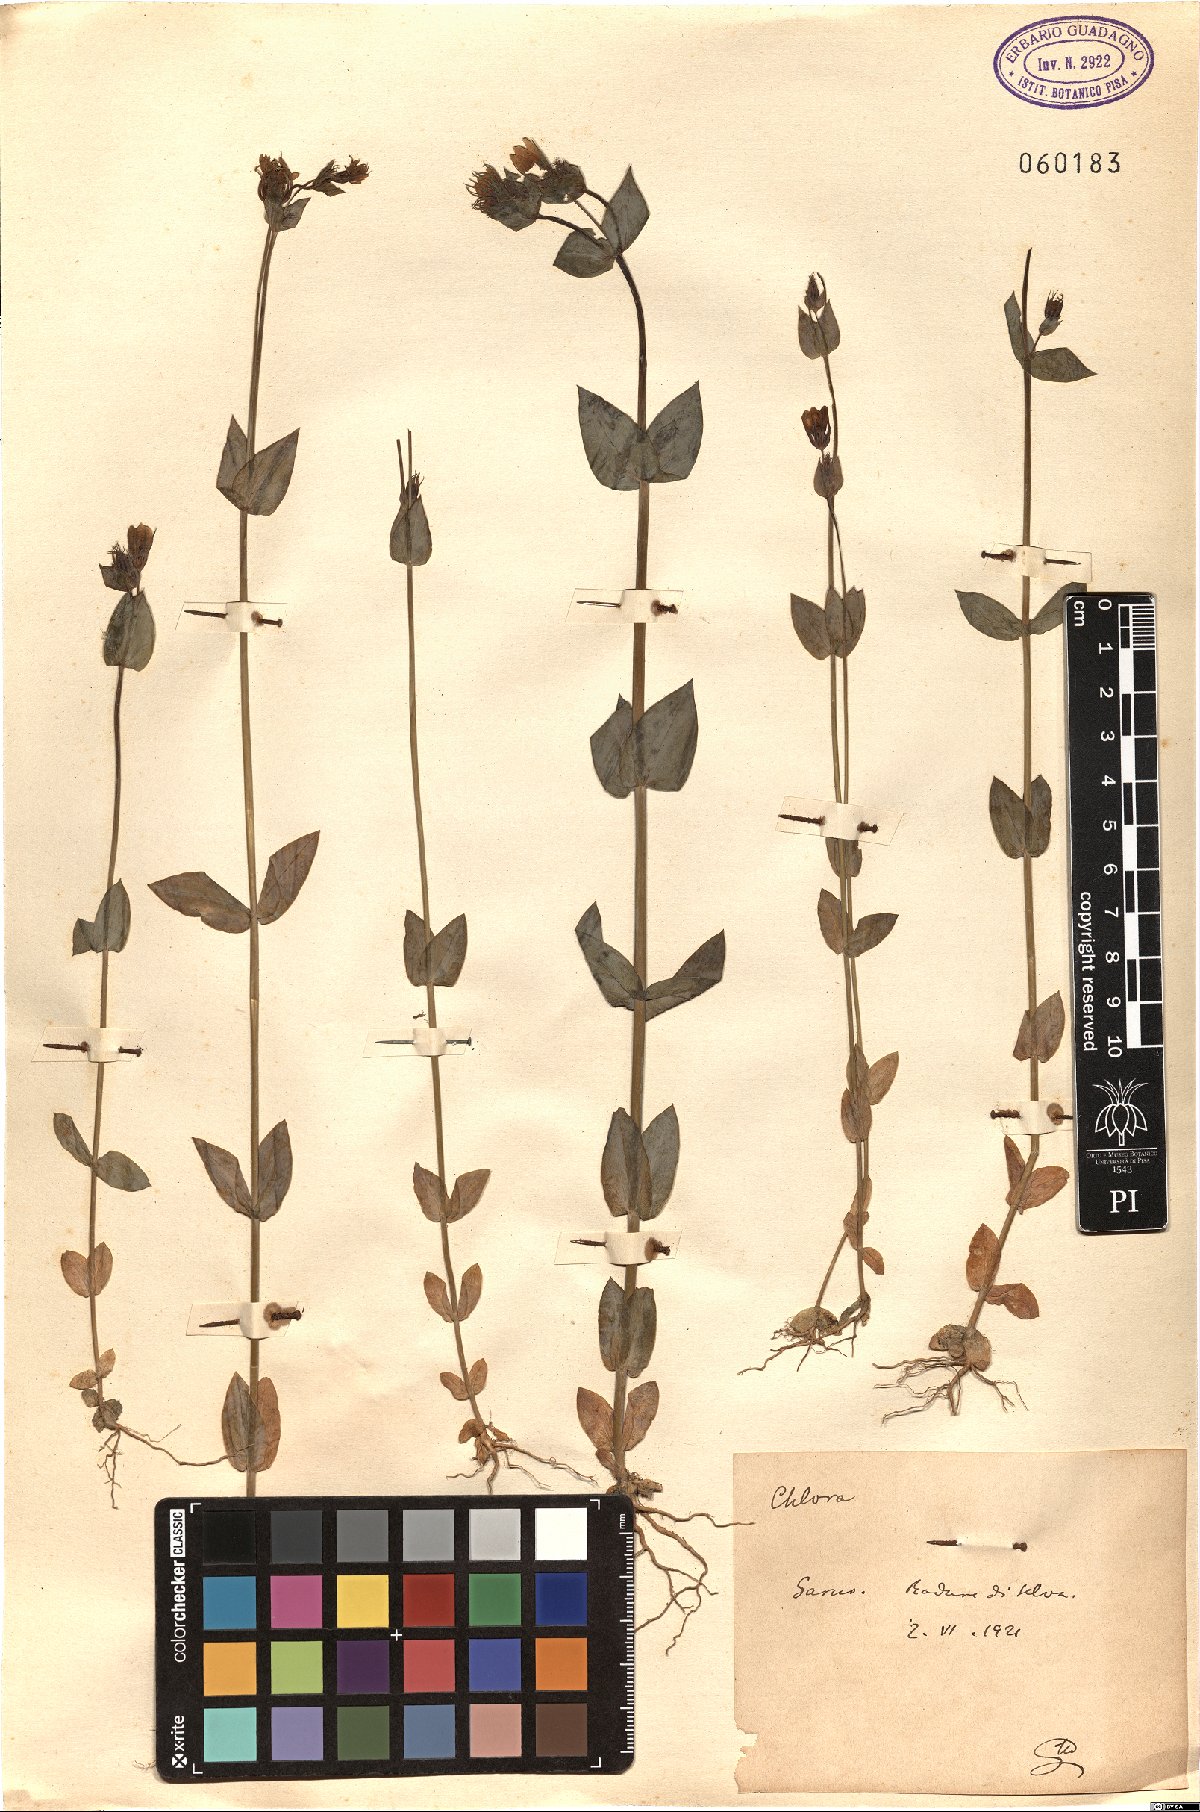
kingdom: Plantae
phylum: Tracheophyta
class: Magnoliopsida
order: Gentianales
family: Gentianaceae
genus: Blackstonia
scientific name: Blackstonia
